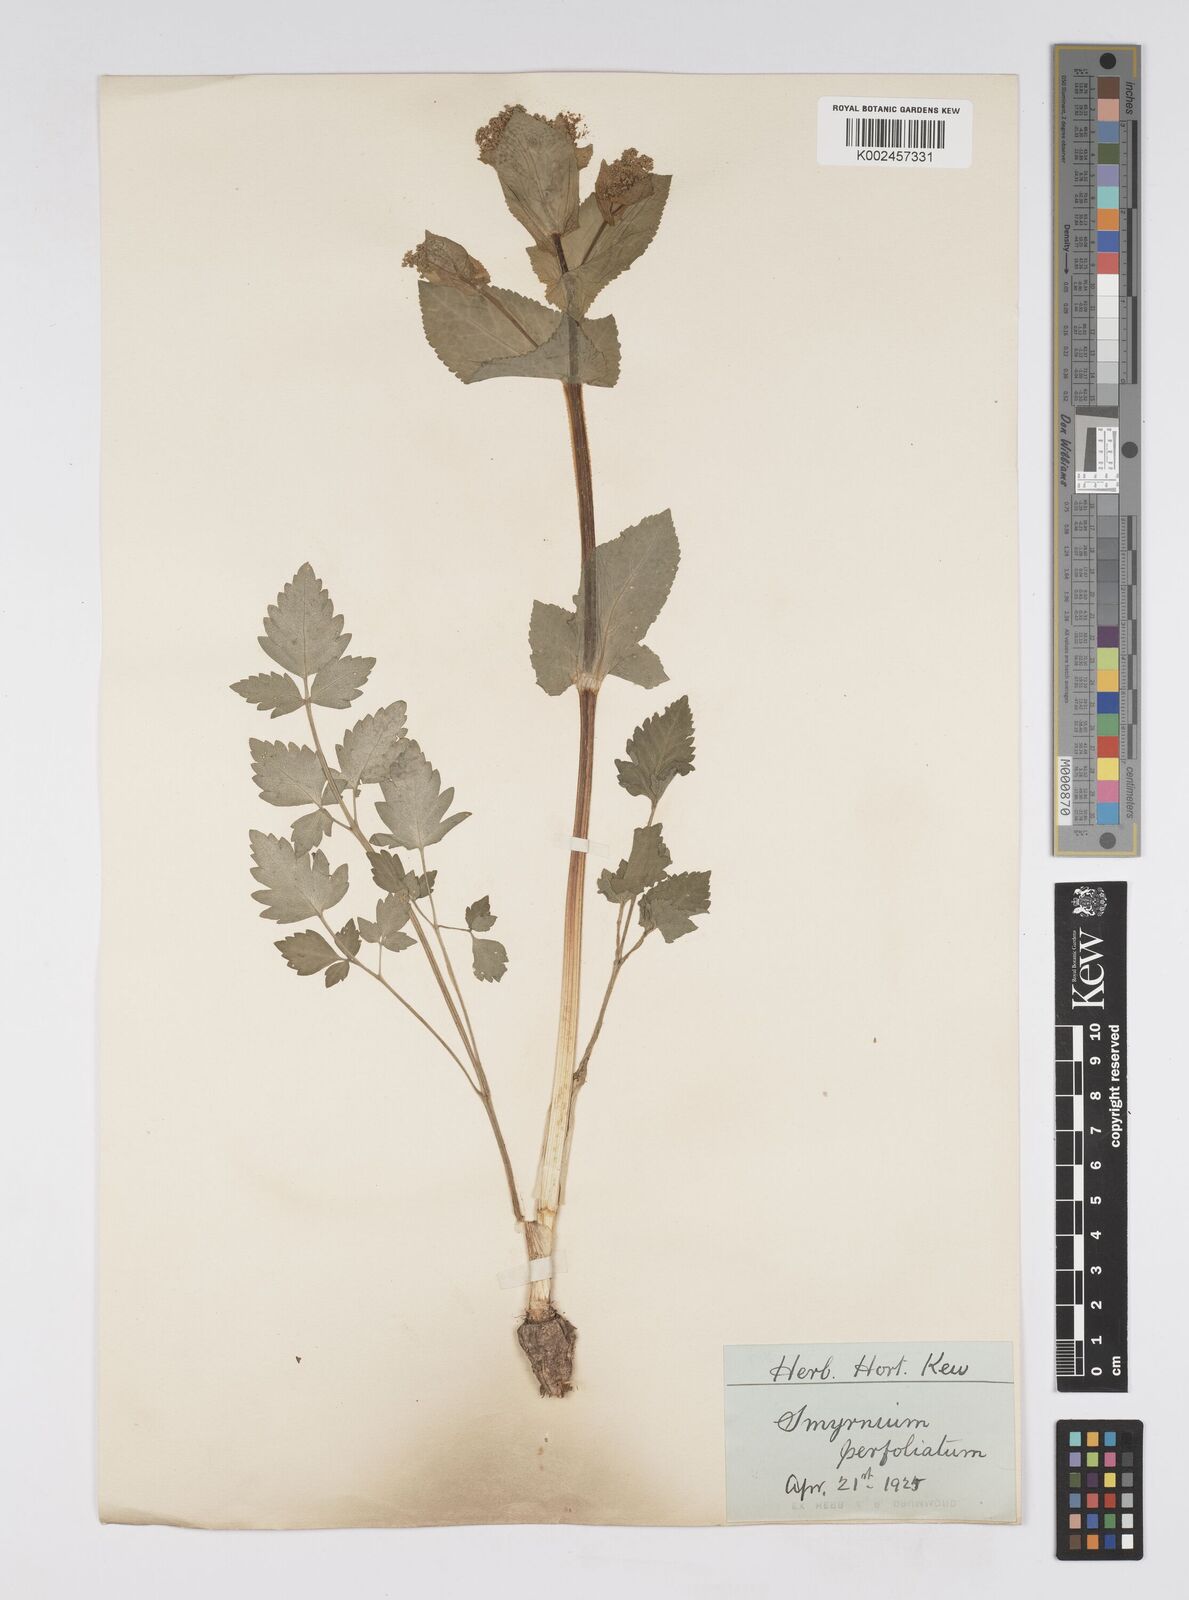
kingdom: Plantae
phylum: Tracheophyta
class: Magnoliopsida
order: Apiales
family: Apiaceae
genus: Smyrnium
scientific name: Smyrnium perfoliatum
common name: Perfoliate alexanders
